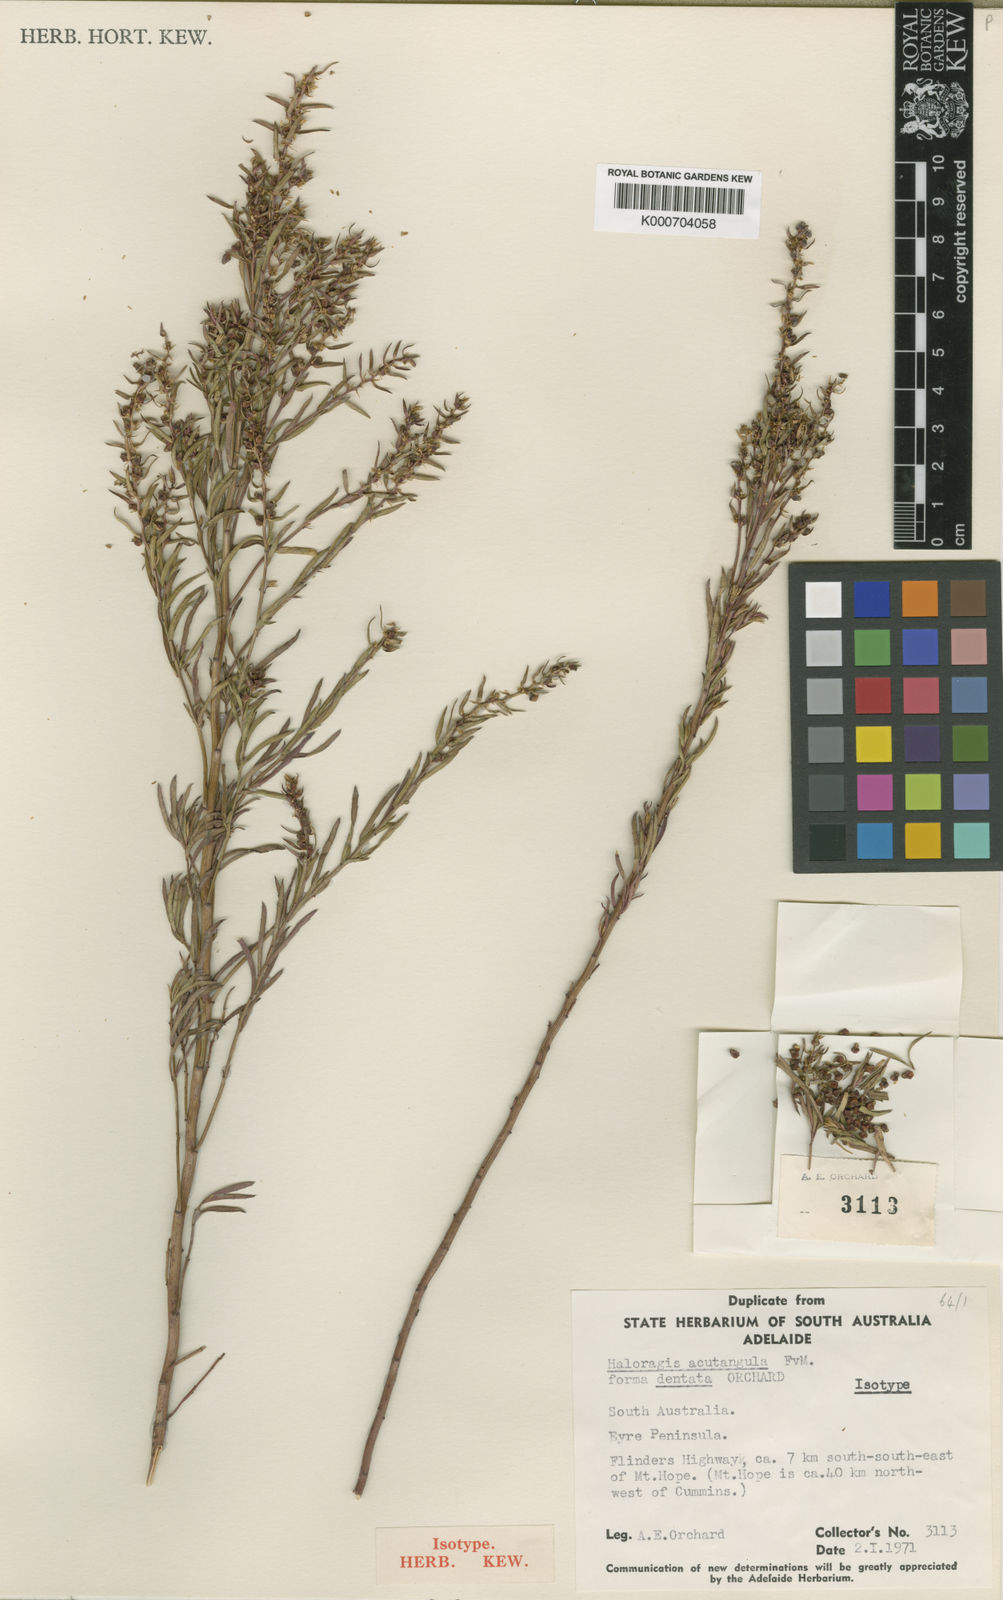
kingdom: Plantae
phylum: Tracheophyta
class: Magnoliopsida
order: Saxifragales
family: Haloragaceae
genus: Haloragis
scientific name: Haloragis acutangula
